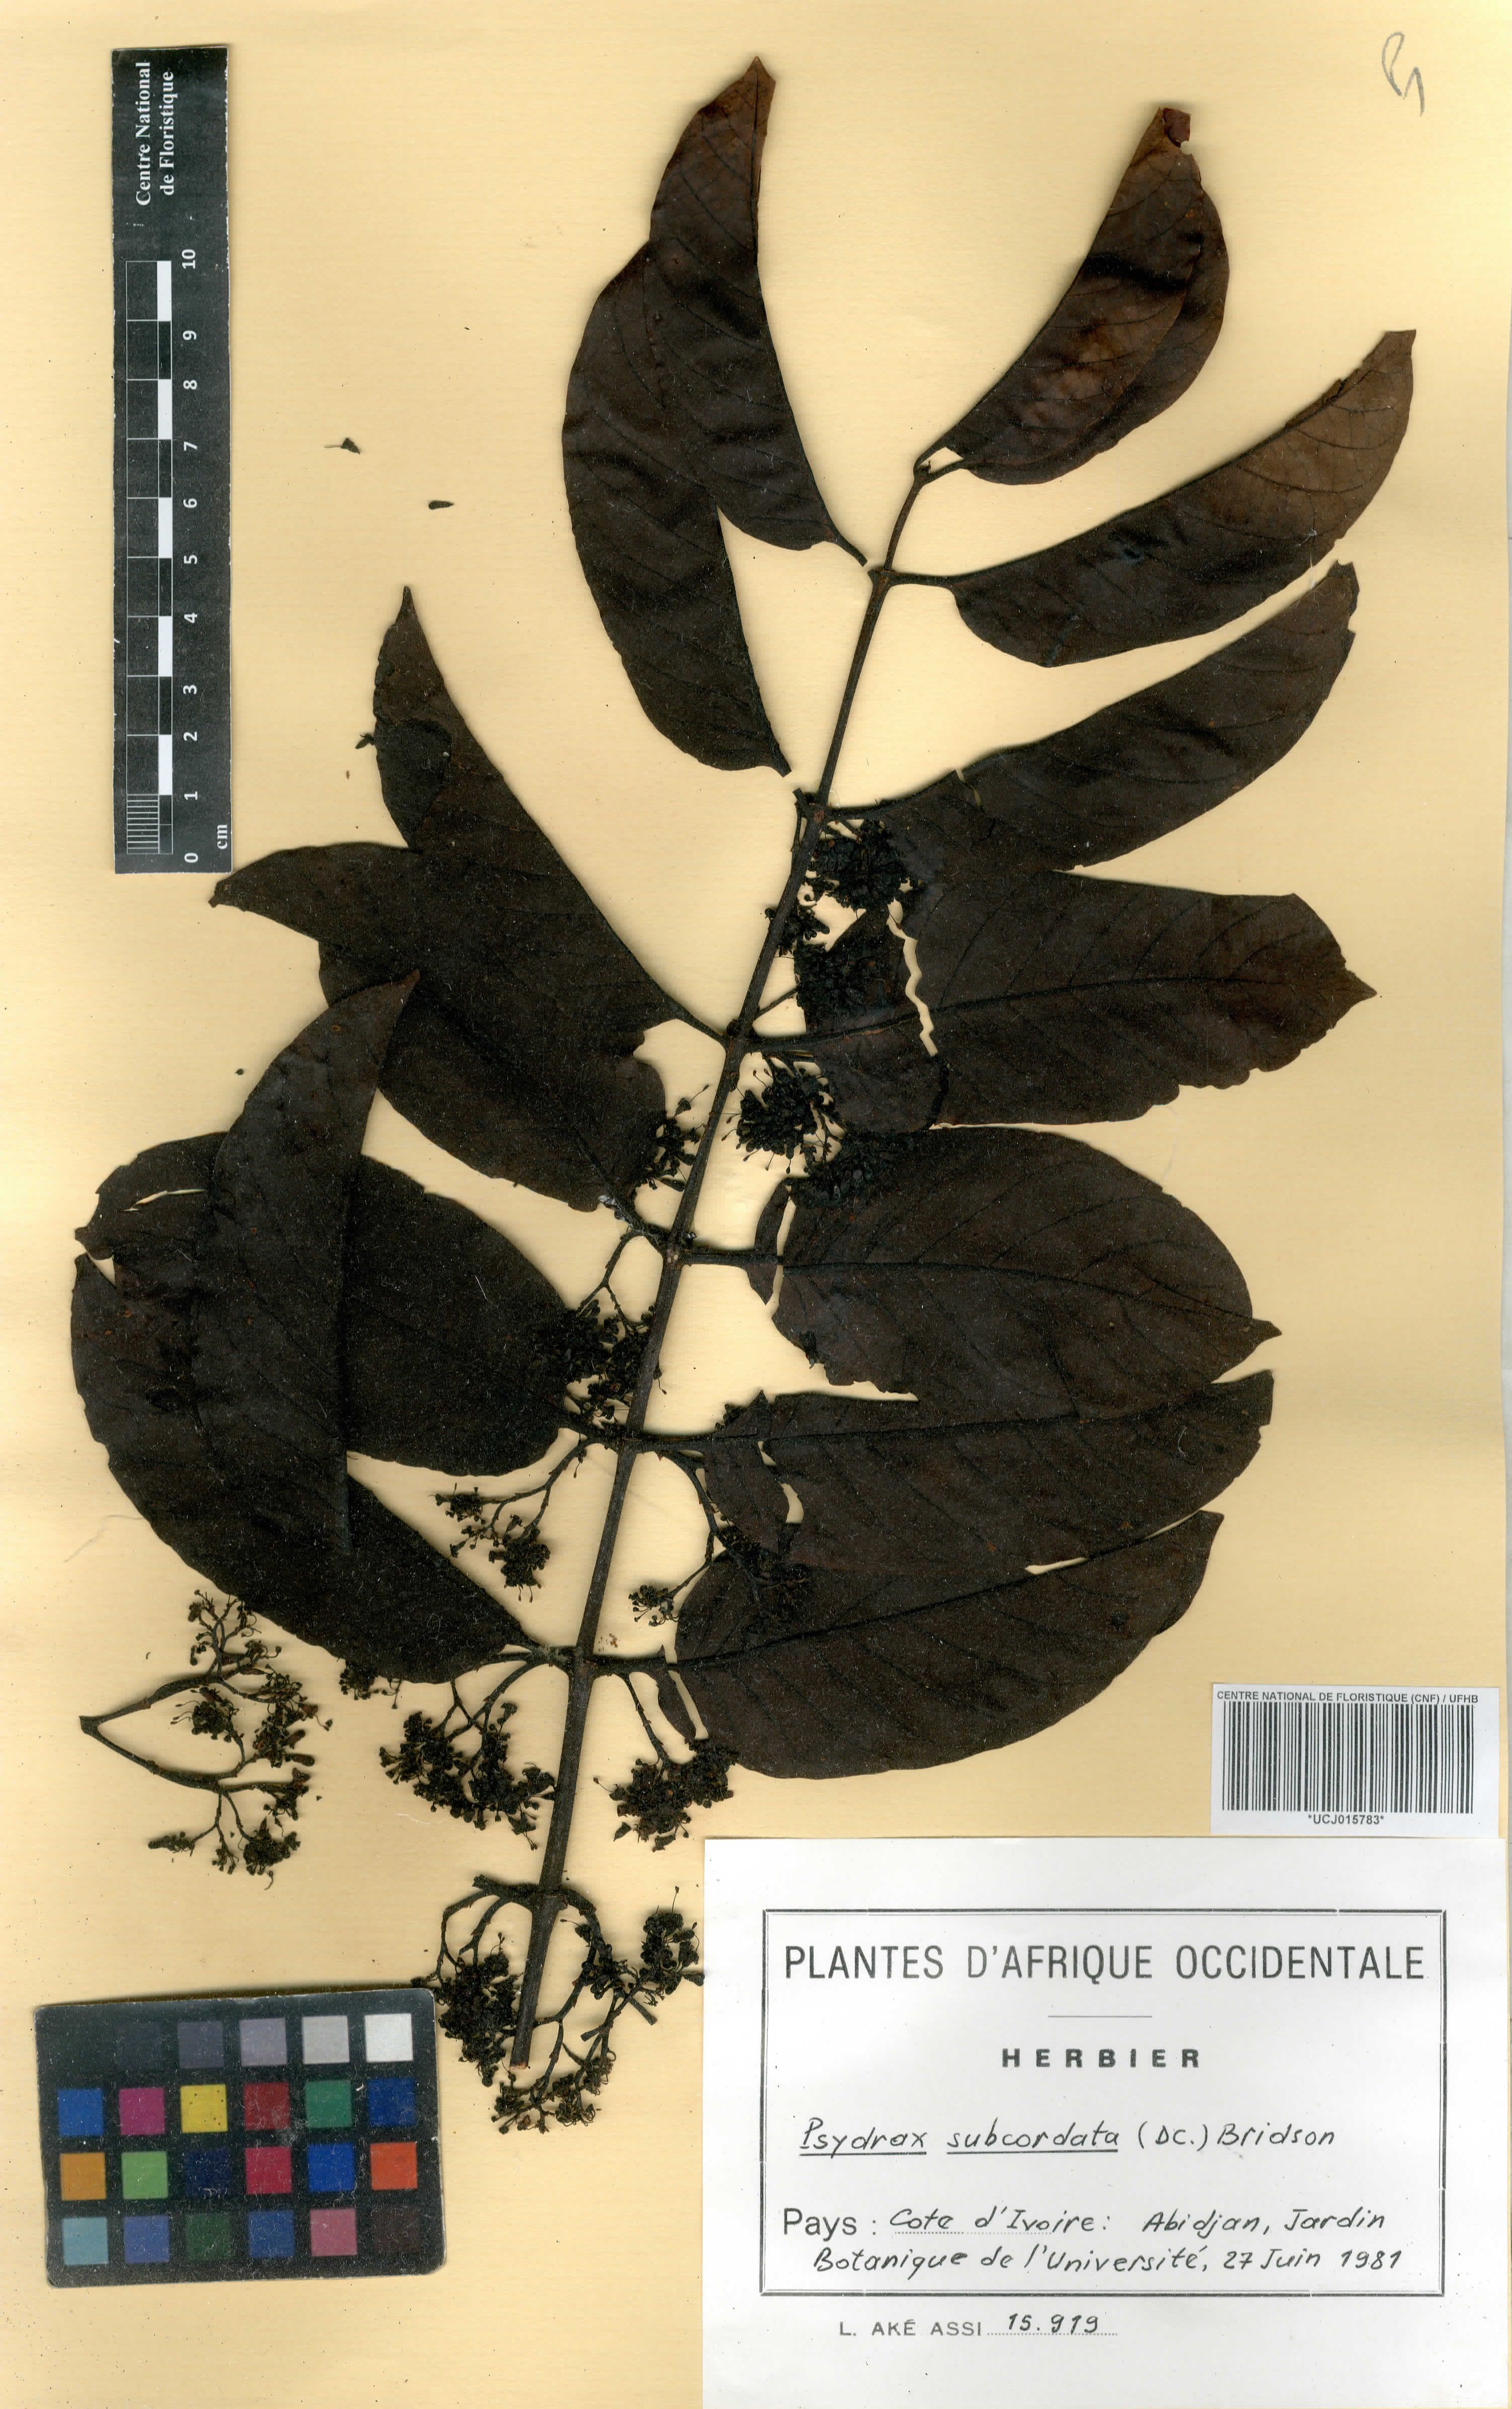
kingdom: Plantae
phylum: Tracheophyta
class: Magnoliopsida
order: Gentianales
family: Rubiaceae
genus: Psydrax
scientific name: Psydrax subcordatus
